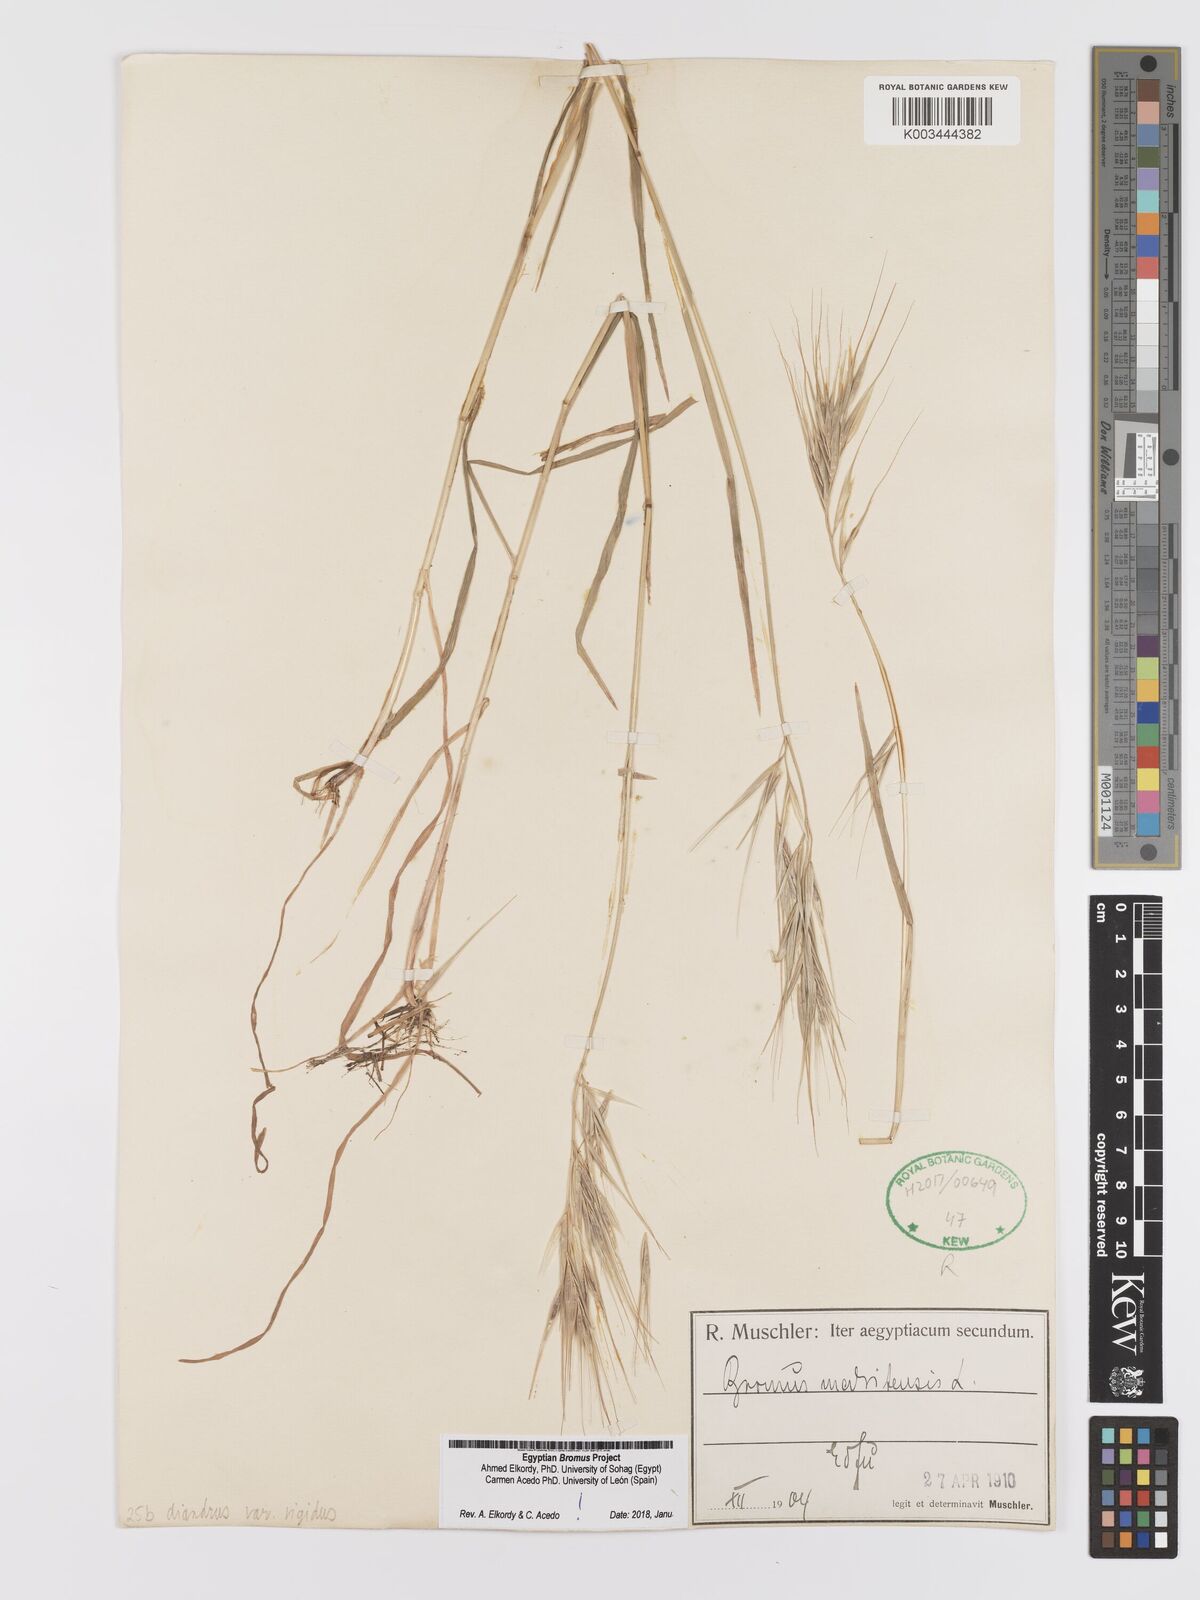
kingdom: Plantae
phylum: Tracheophyta
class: Liliopsida
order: Poales
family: Poaceae
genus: Bromus
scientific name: Bromus
